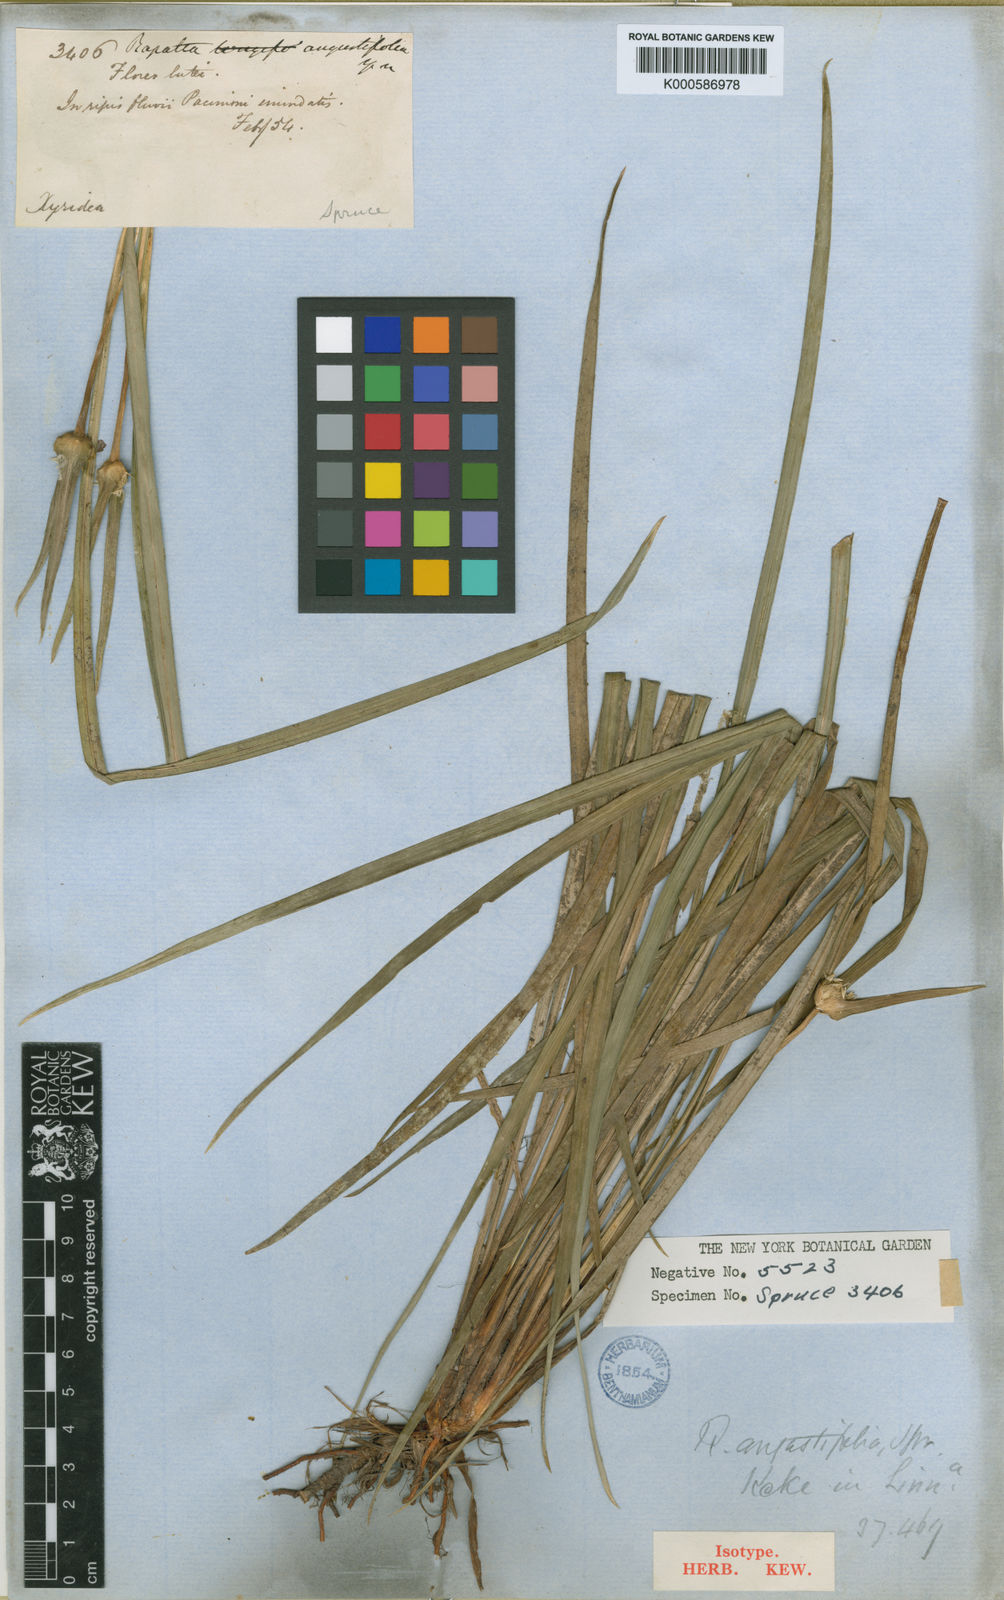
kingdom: Plantae
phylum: Tracheophyta
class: Liliopsida
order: Poales
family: Rapateaceae
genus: Rapatea
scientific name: Rapatea
